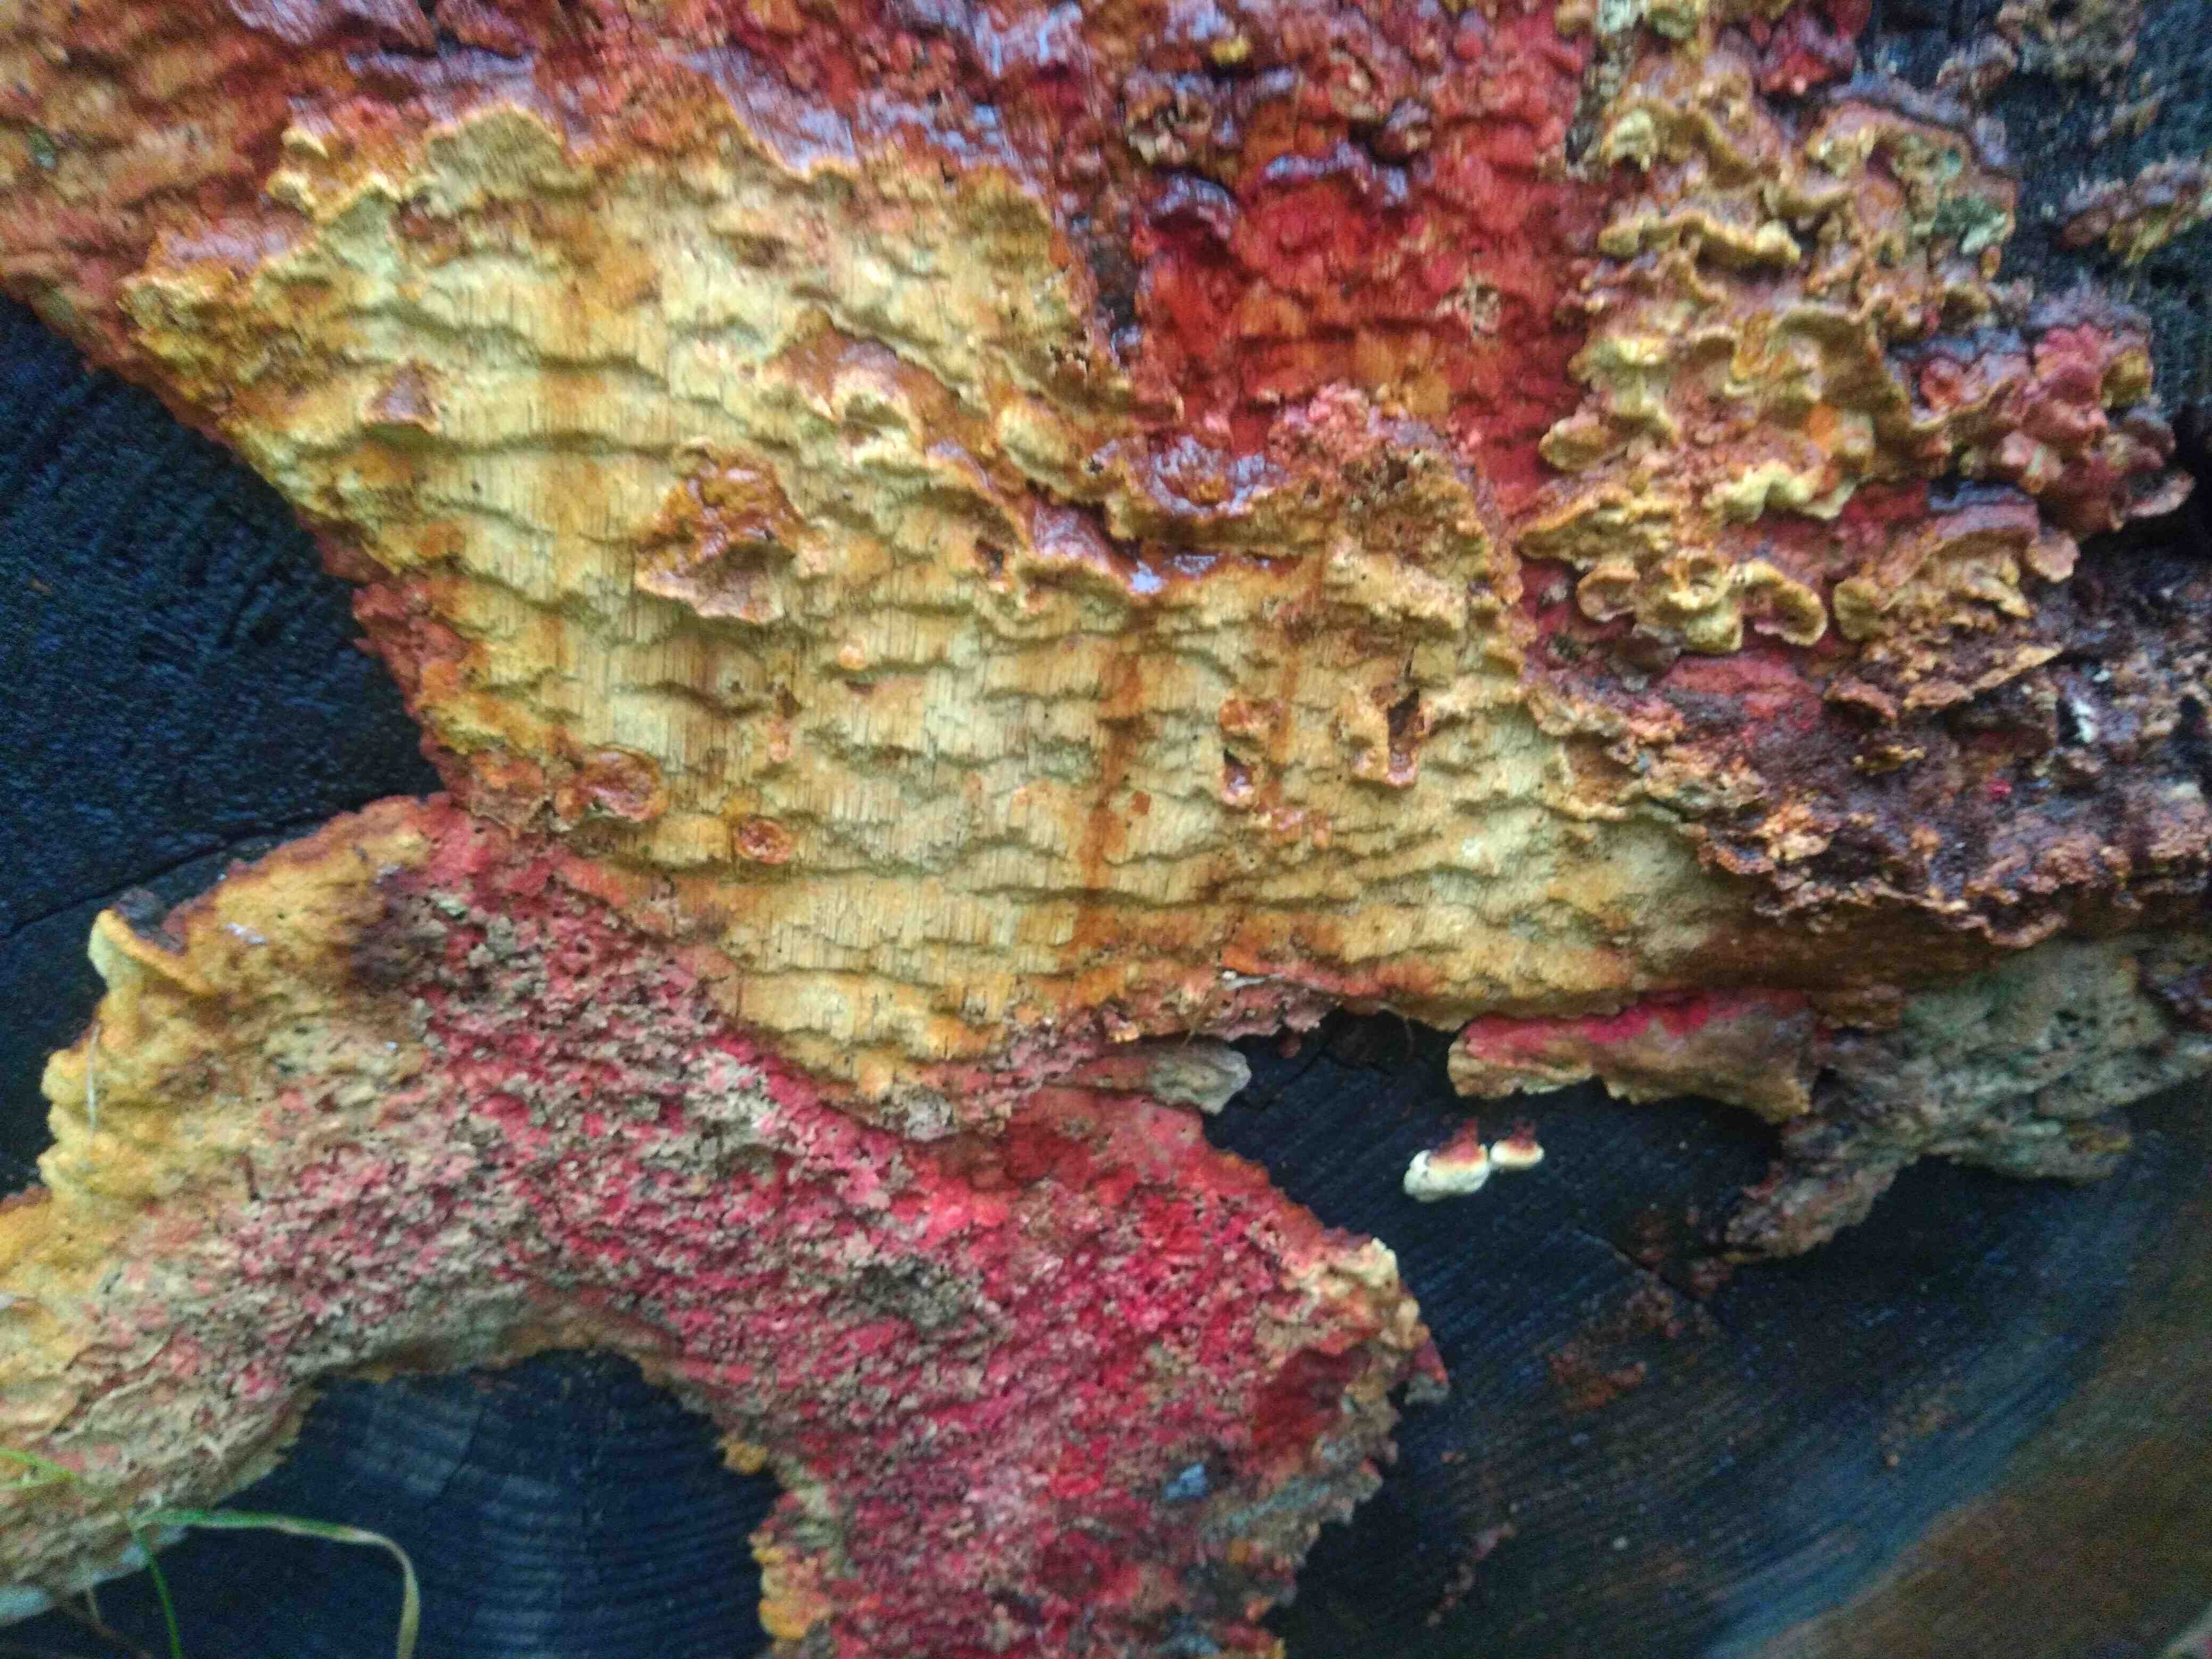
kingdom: Fungi
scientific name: Fungi
